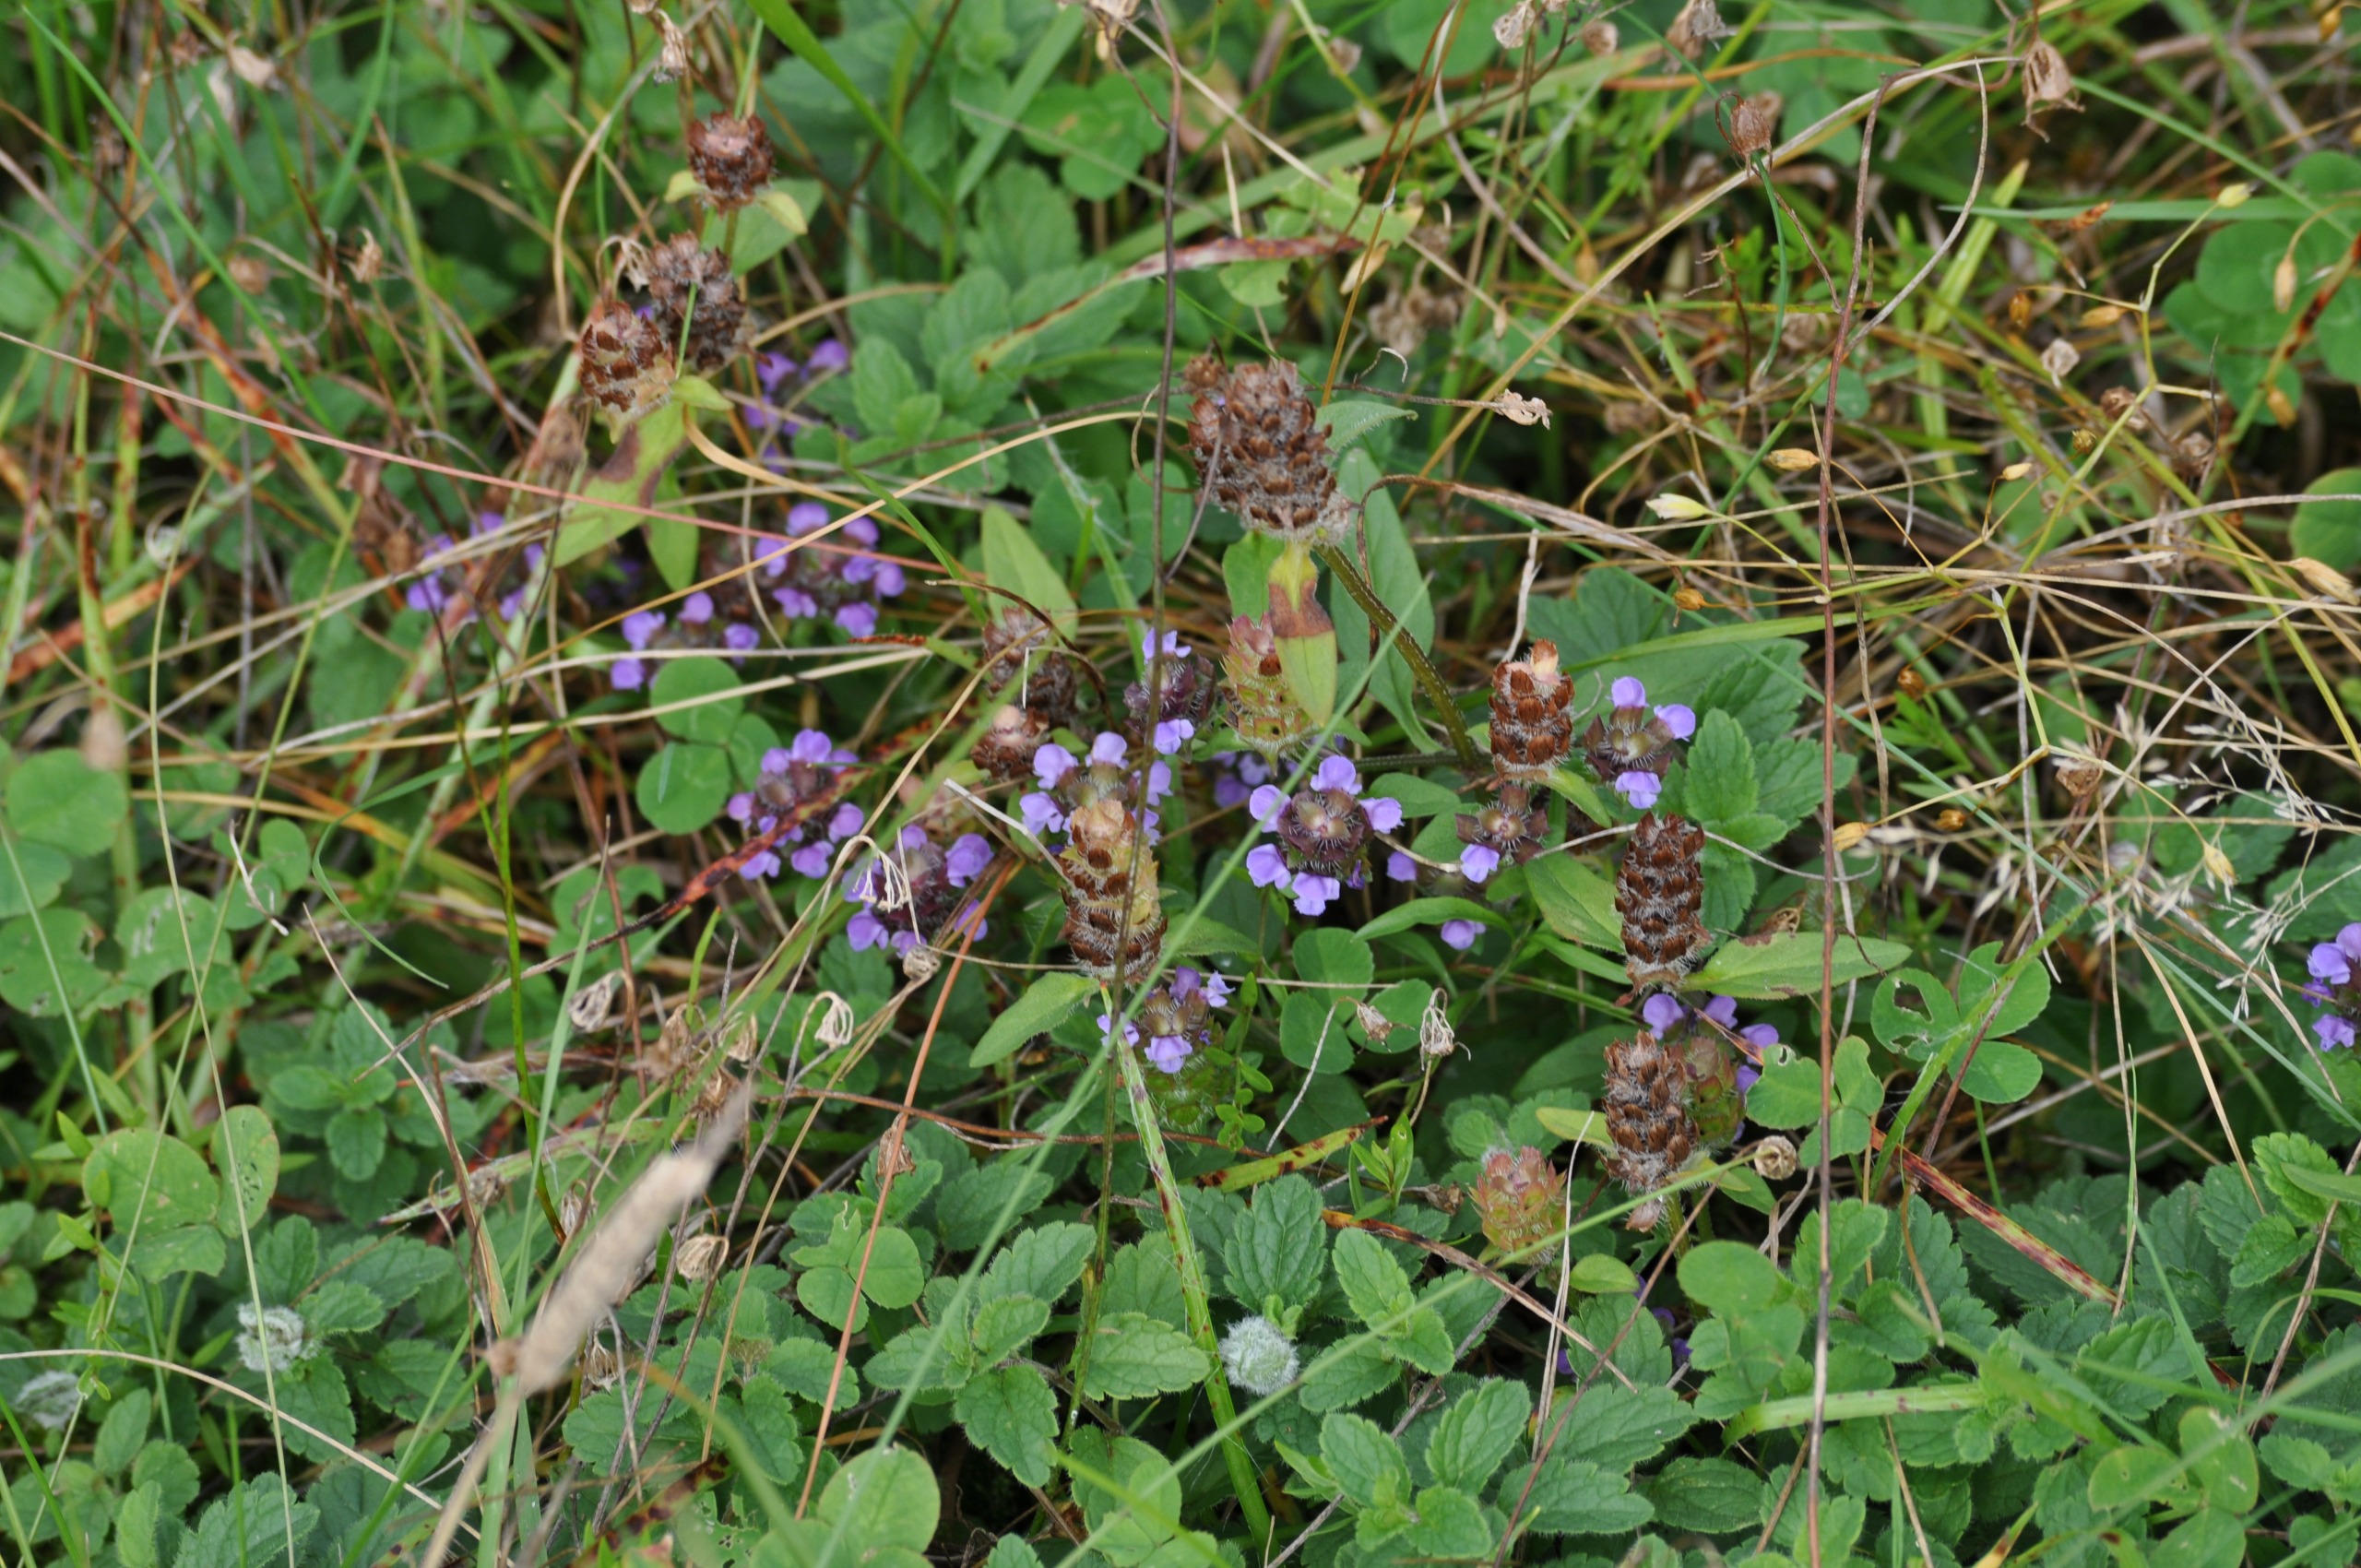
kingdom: Plantae
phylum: Tracheophyta
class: Magnoliopsida
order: Lamiales
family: Lamiaceae
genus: Prunella
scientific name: Prunella vulgaris
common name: Almindelig brunelle
